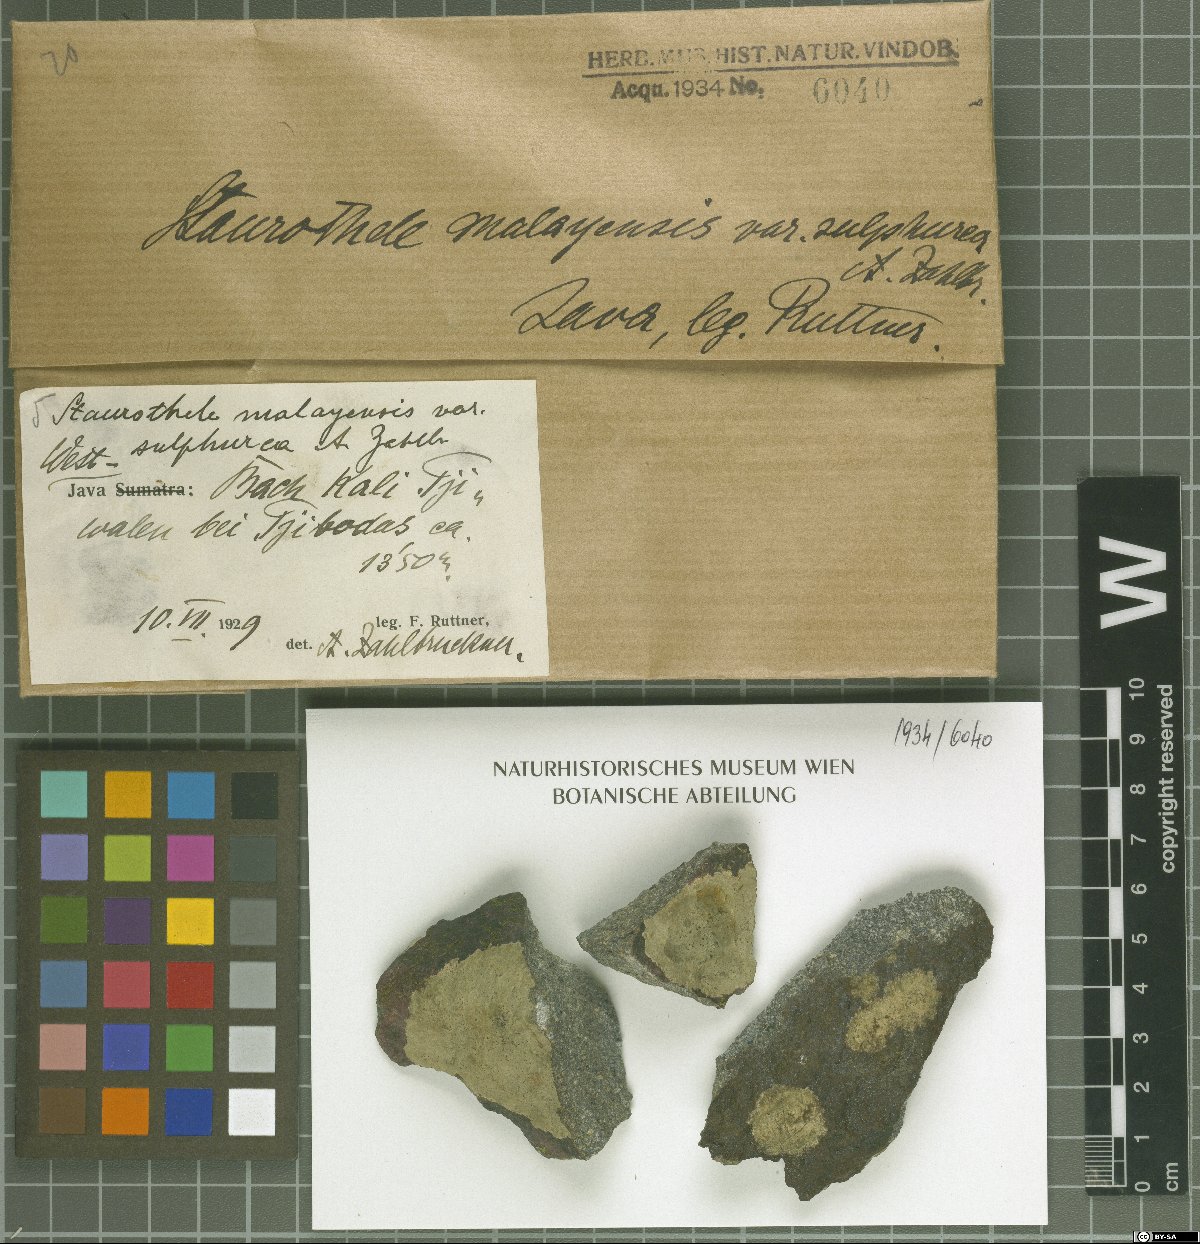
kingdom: Fungi
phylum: Ascomycota
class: Eurotiomycetes
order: Verrucariales
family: Verrucariaceae
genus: Willeya
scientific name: Willeya malayensis
